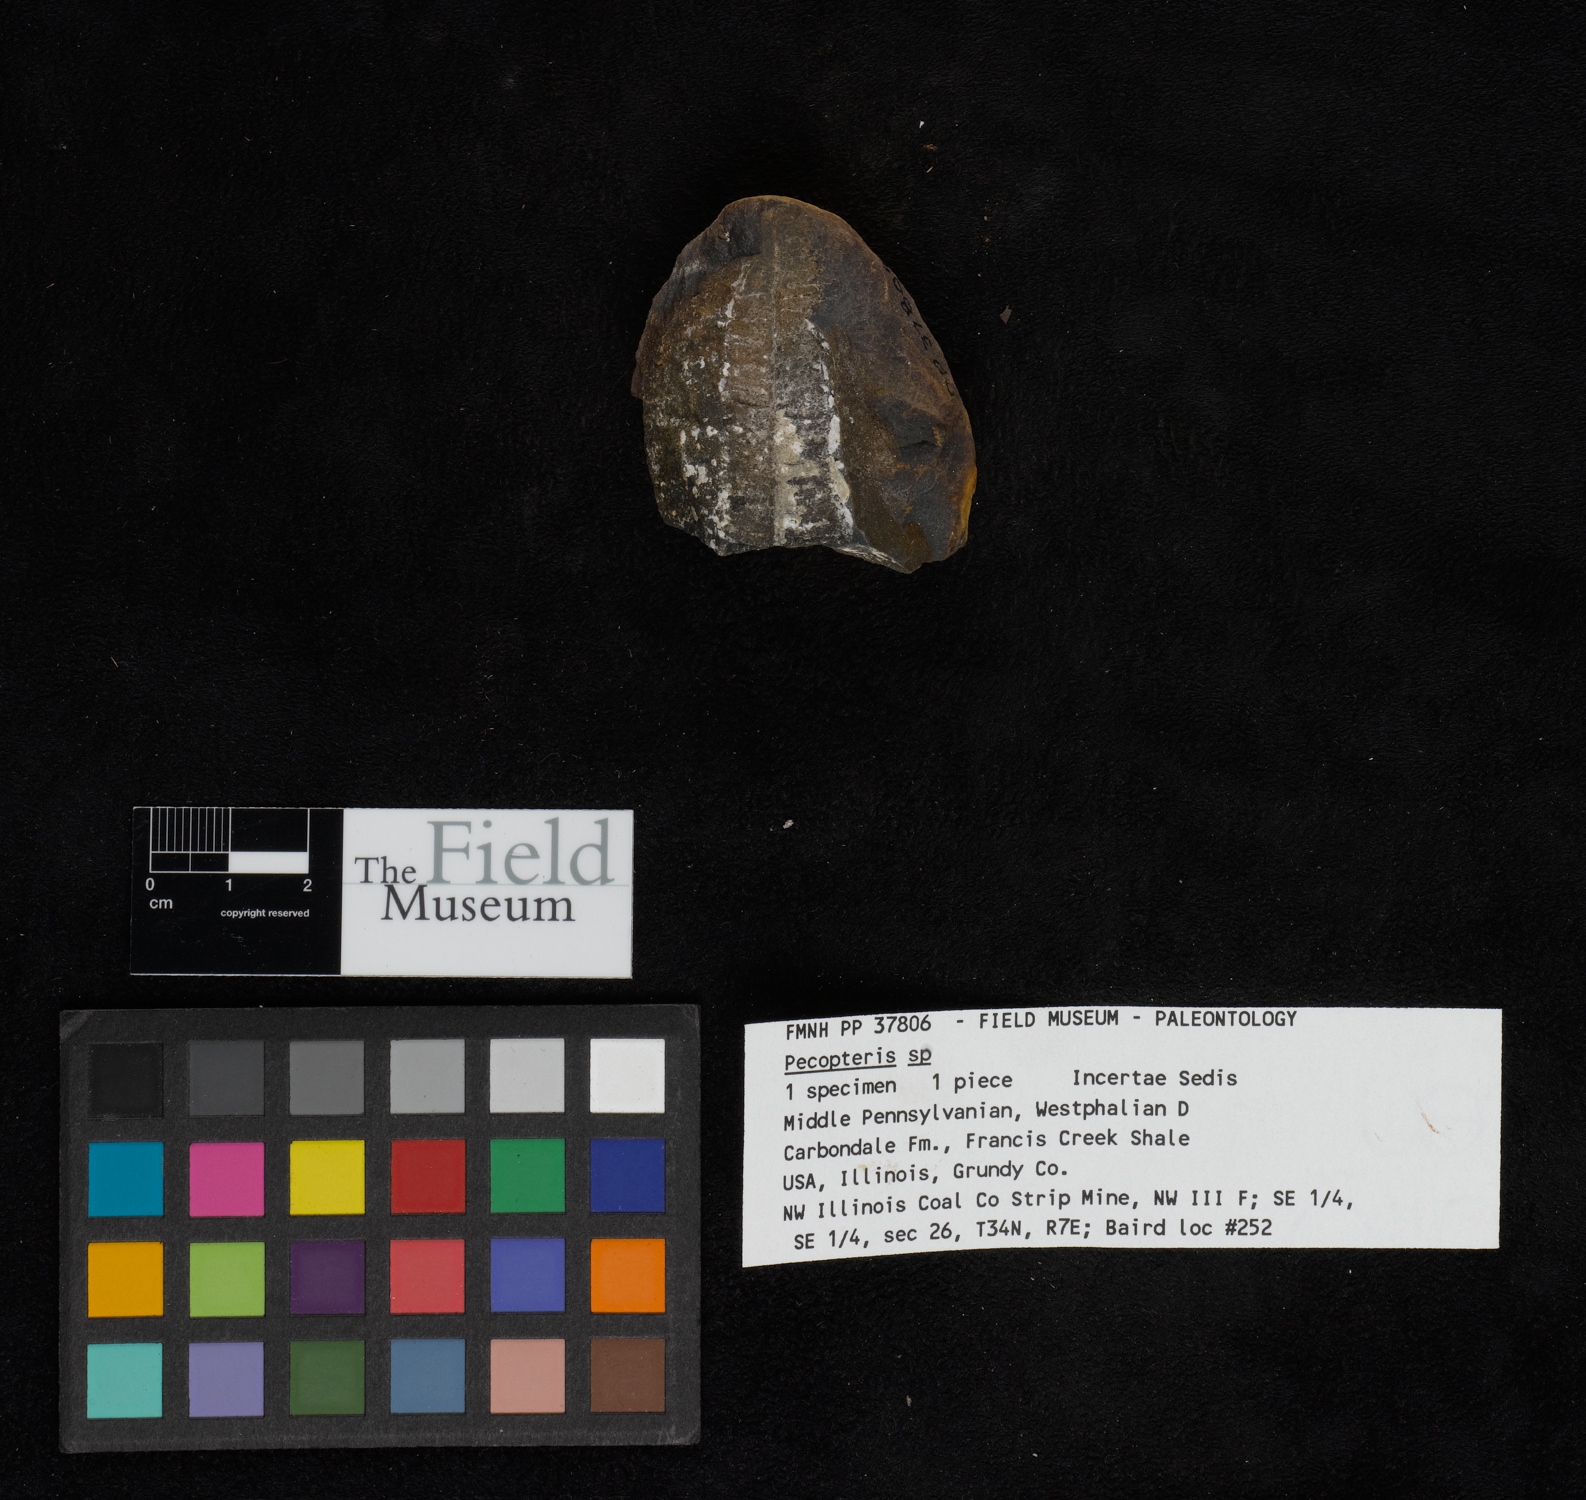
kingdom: Plantae
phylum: Tracheophyta
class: Polypodiopsida
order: Marattiales
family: Asterothecaceae
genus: Pecopteris
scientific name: Pecopteris
